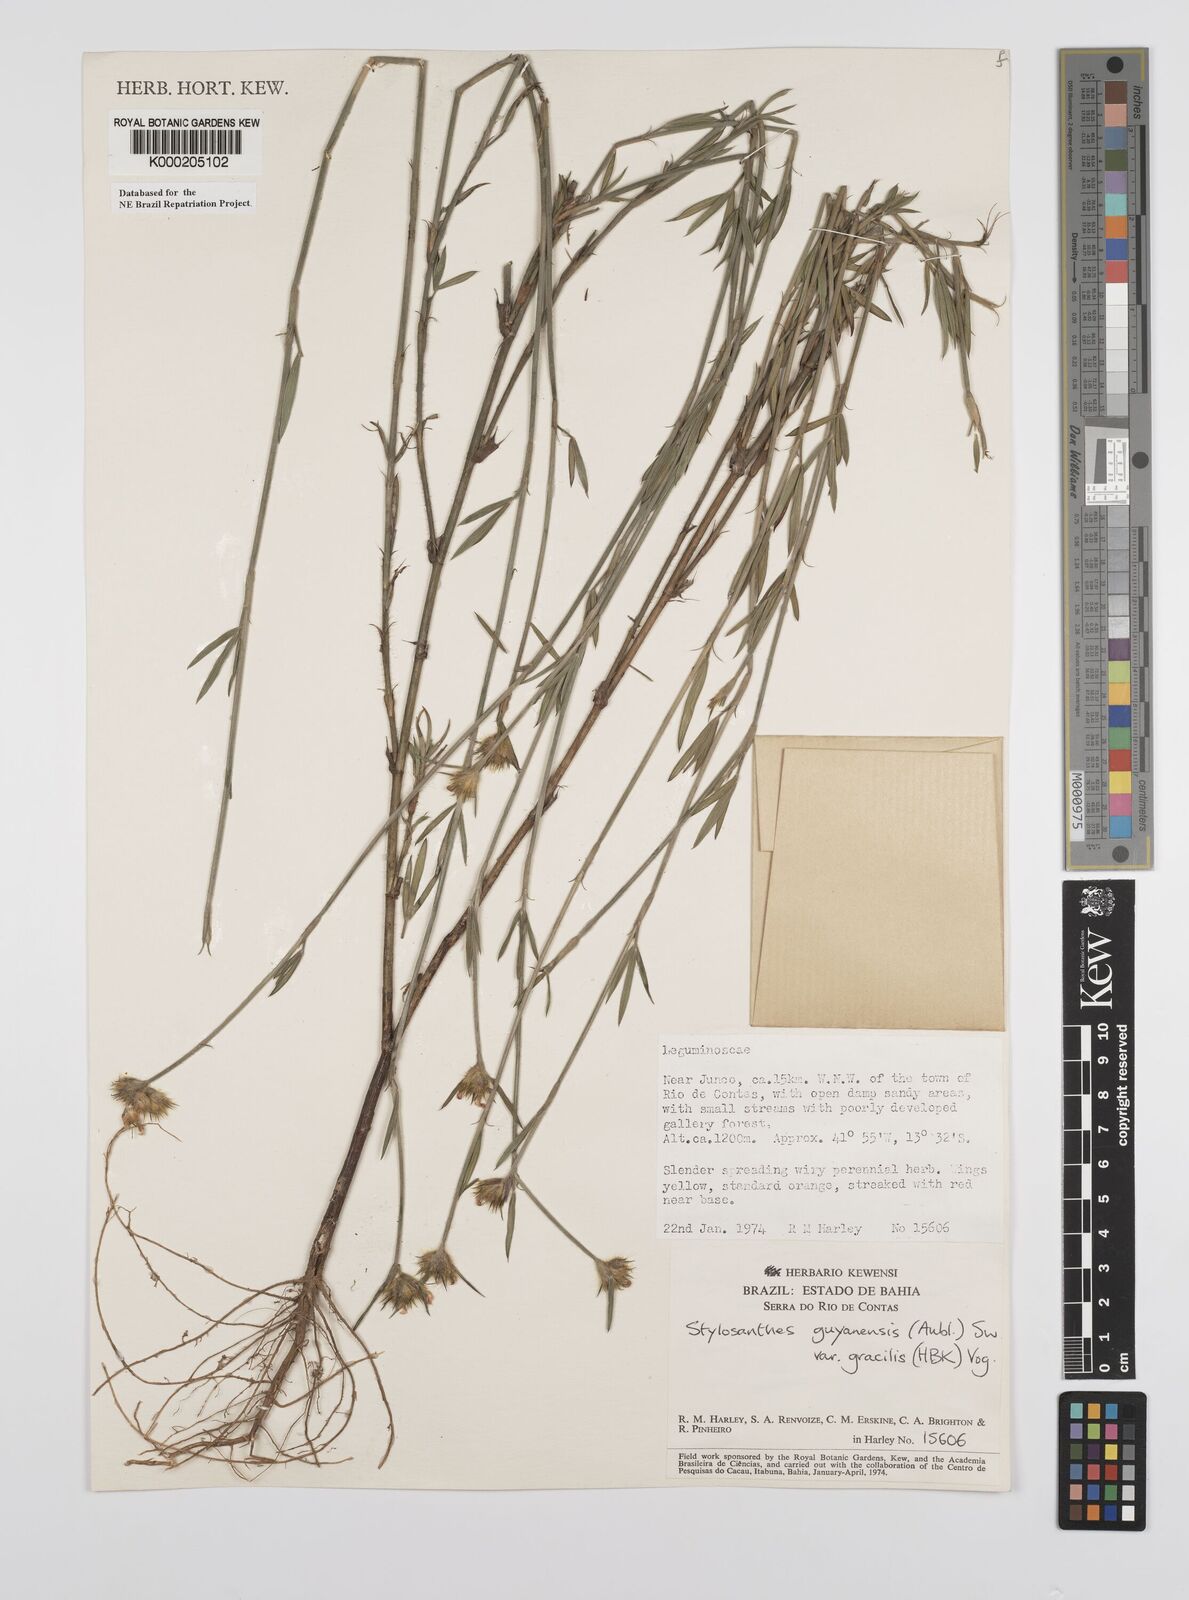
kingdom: Plantae
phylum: Tracheophyta
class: Magnoliopsida
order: Fabales
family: Fabaceae
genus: Stylosanthes
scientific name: Stylosanthes guianensis
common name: Pencil flower
